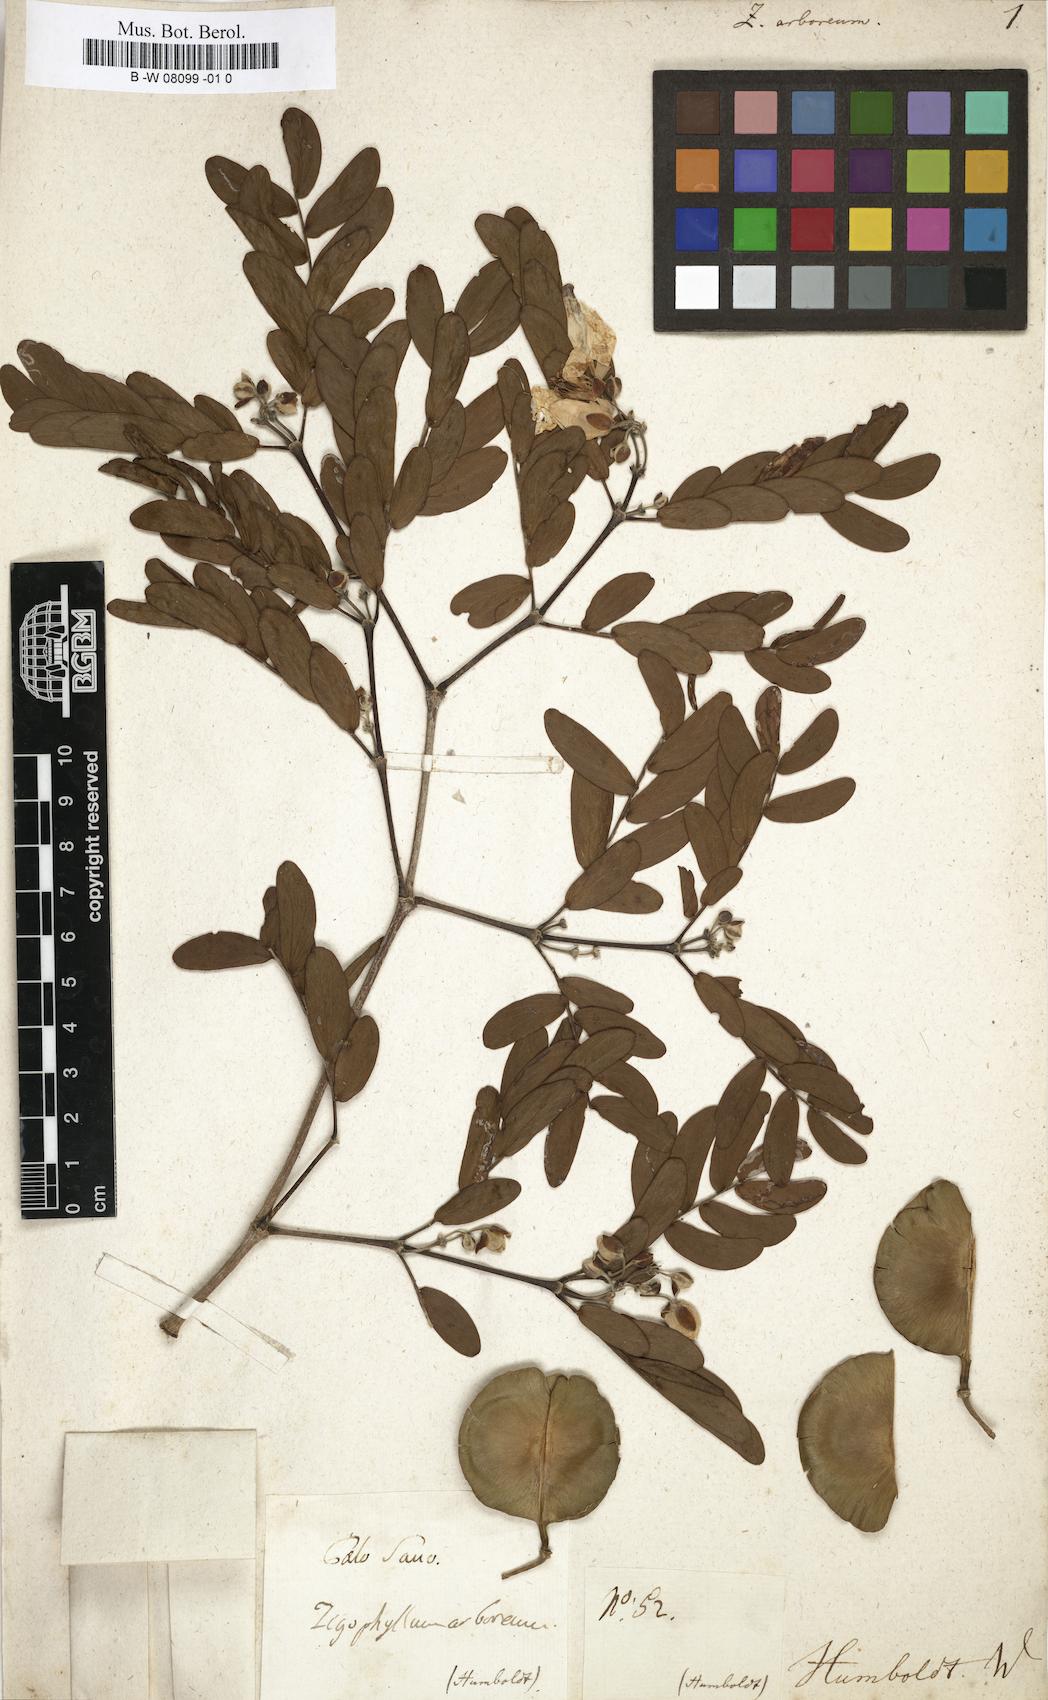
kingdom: Plantae
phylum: Tracheophyta
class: Magnoliopsida
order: Zygophyllales
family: Zygophyllaceae
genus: Gonopterodendron
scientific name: Gonopterodendron arboreum
